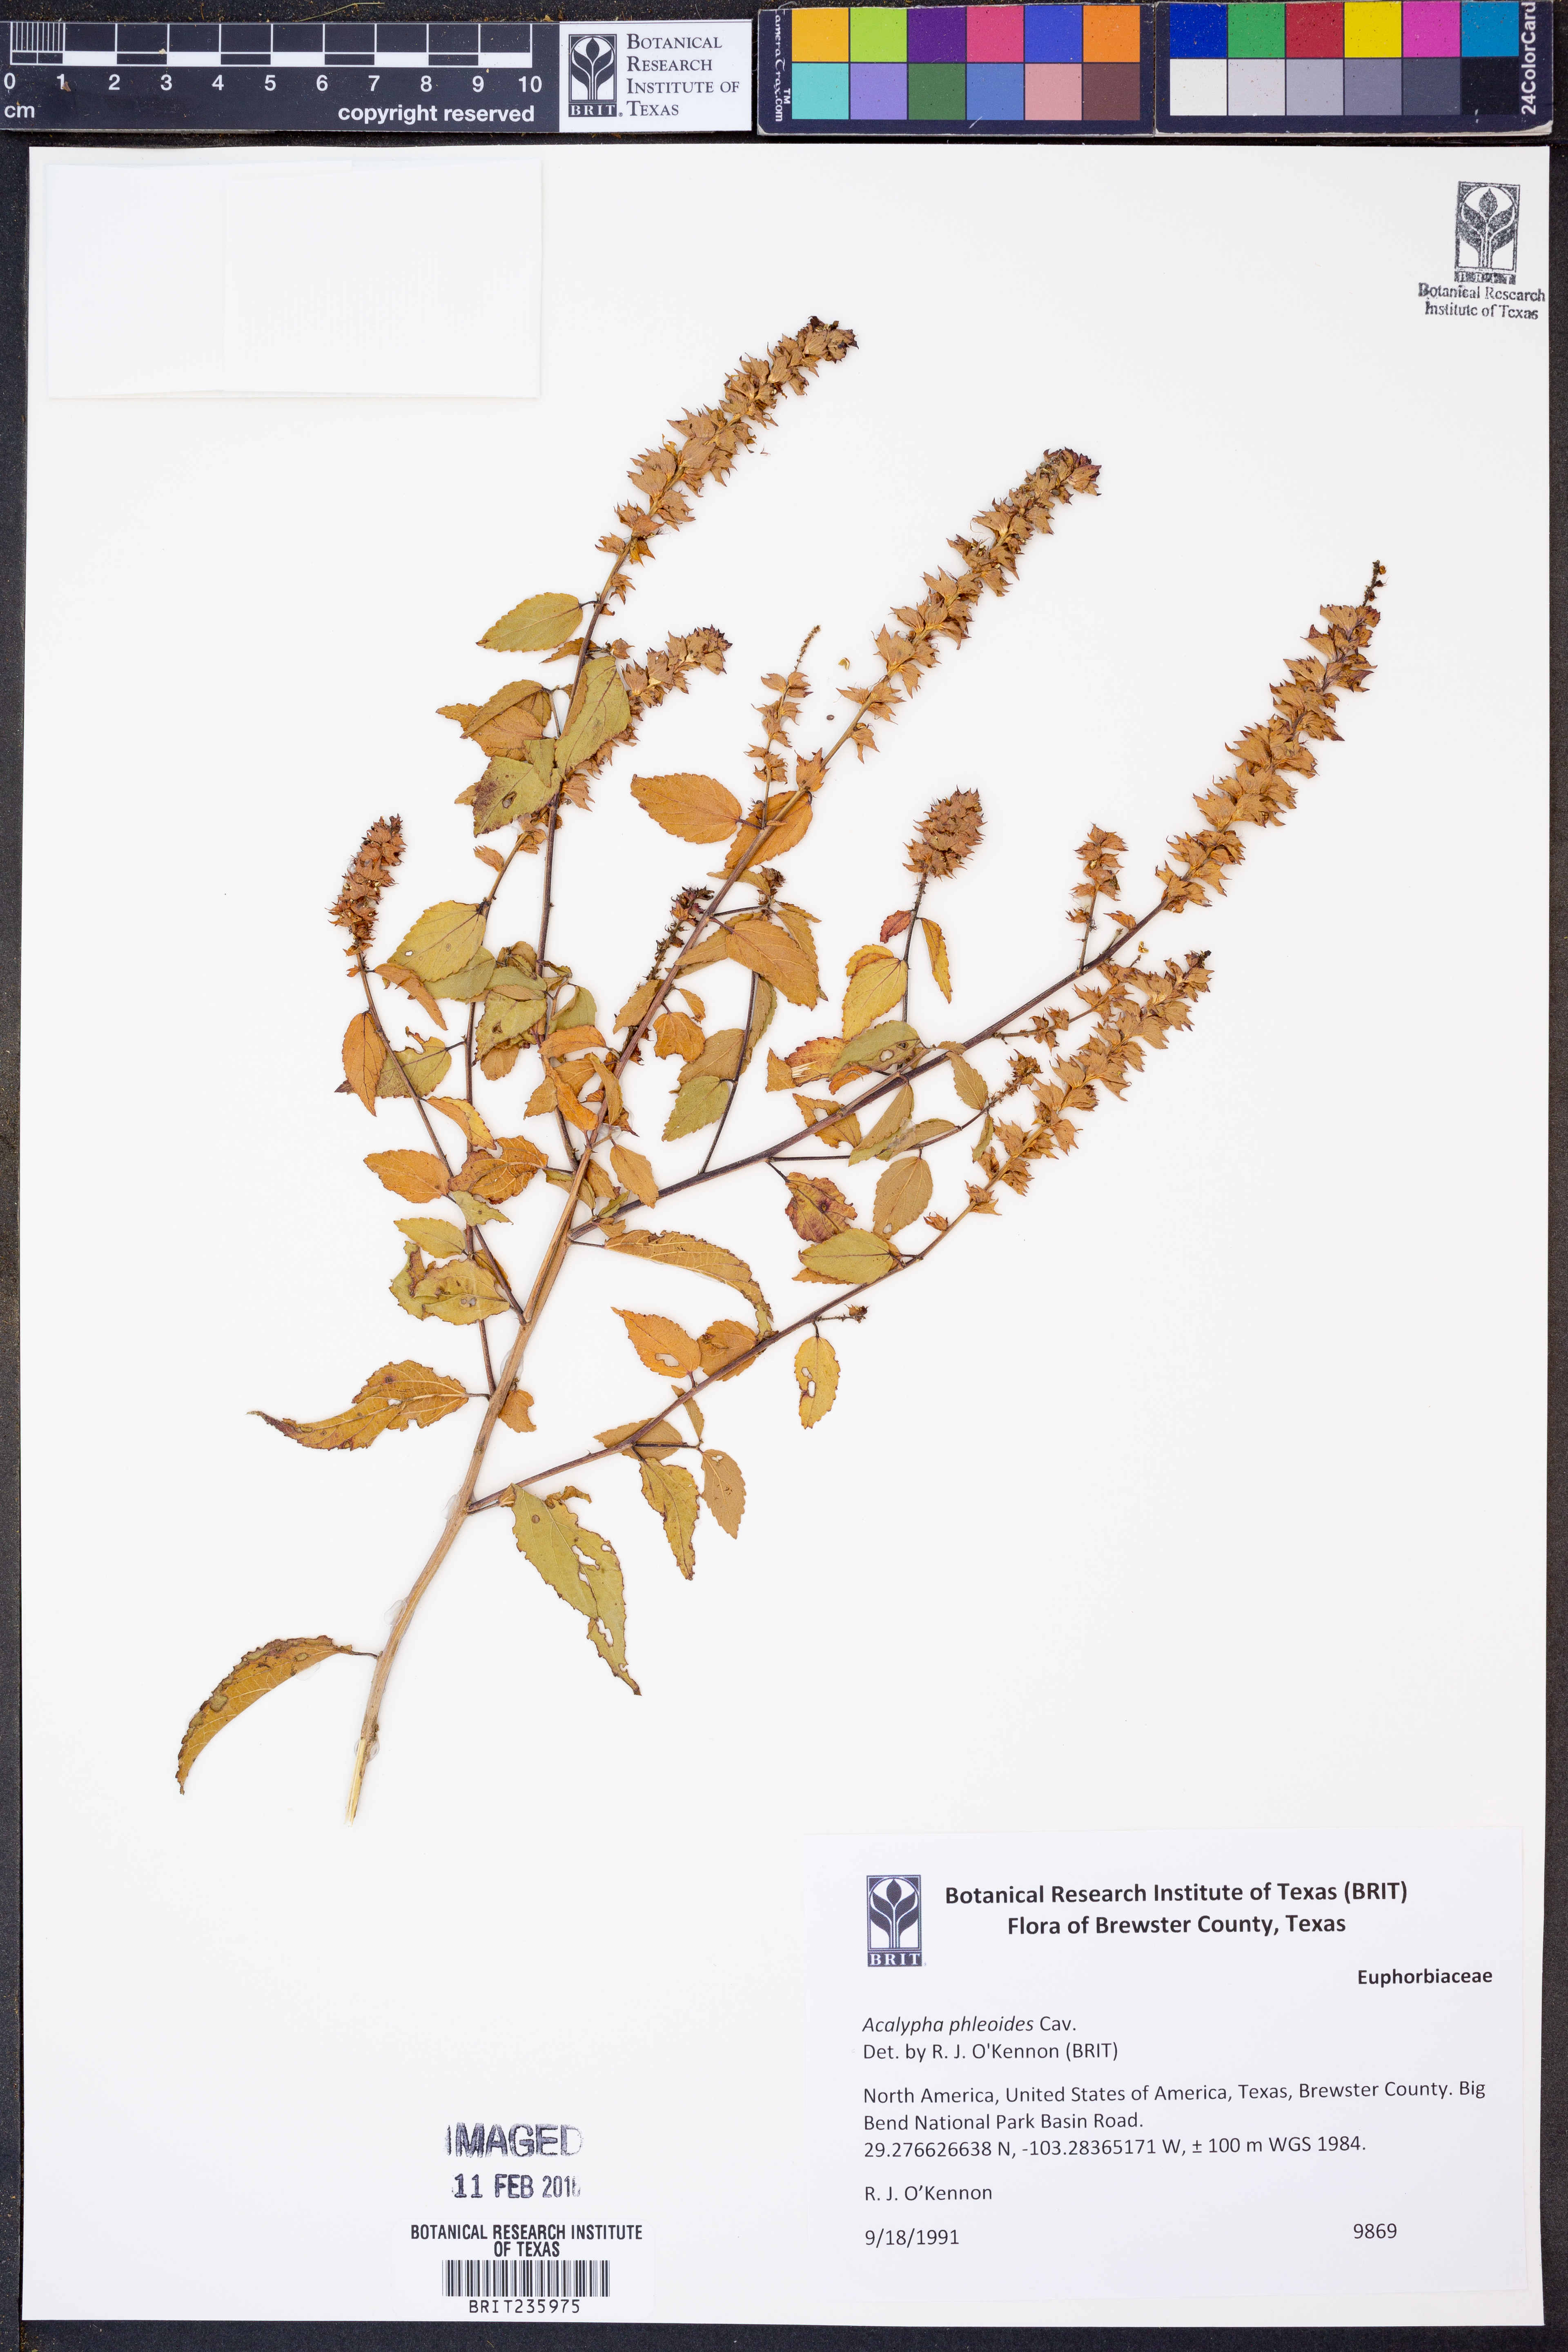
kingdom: Plantae
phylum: Tracheophyta
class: Magnoliopsida
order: Malpighiales
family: Euphorbiaceae
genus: Acalypha
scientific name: Acalypha phleoides
